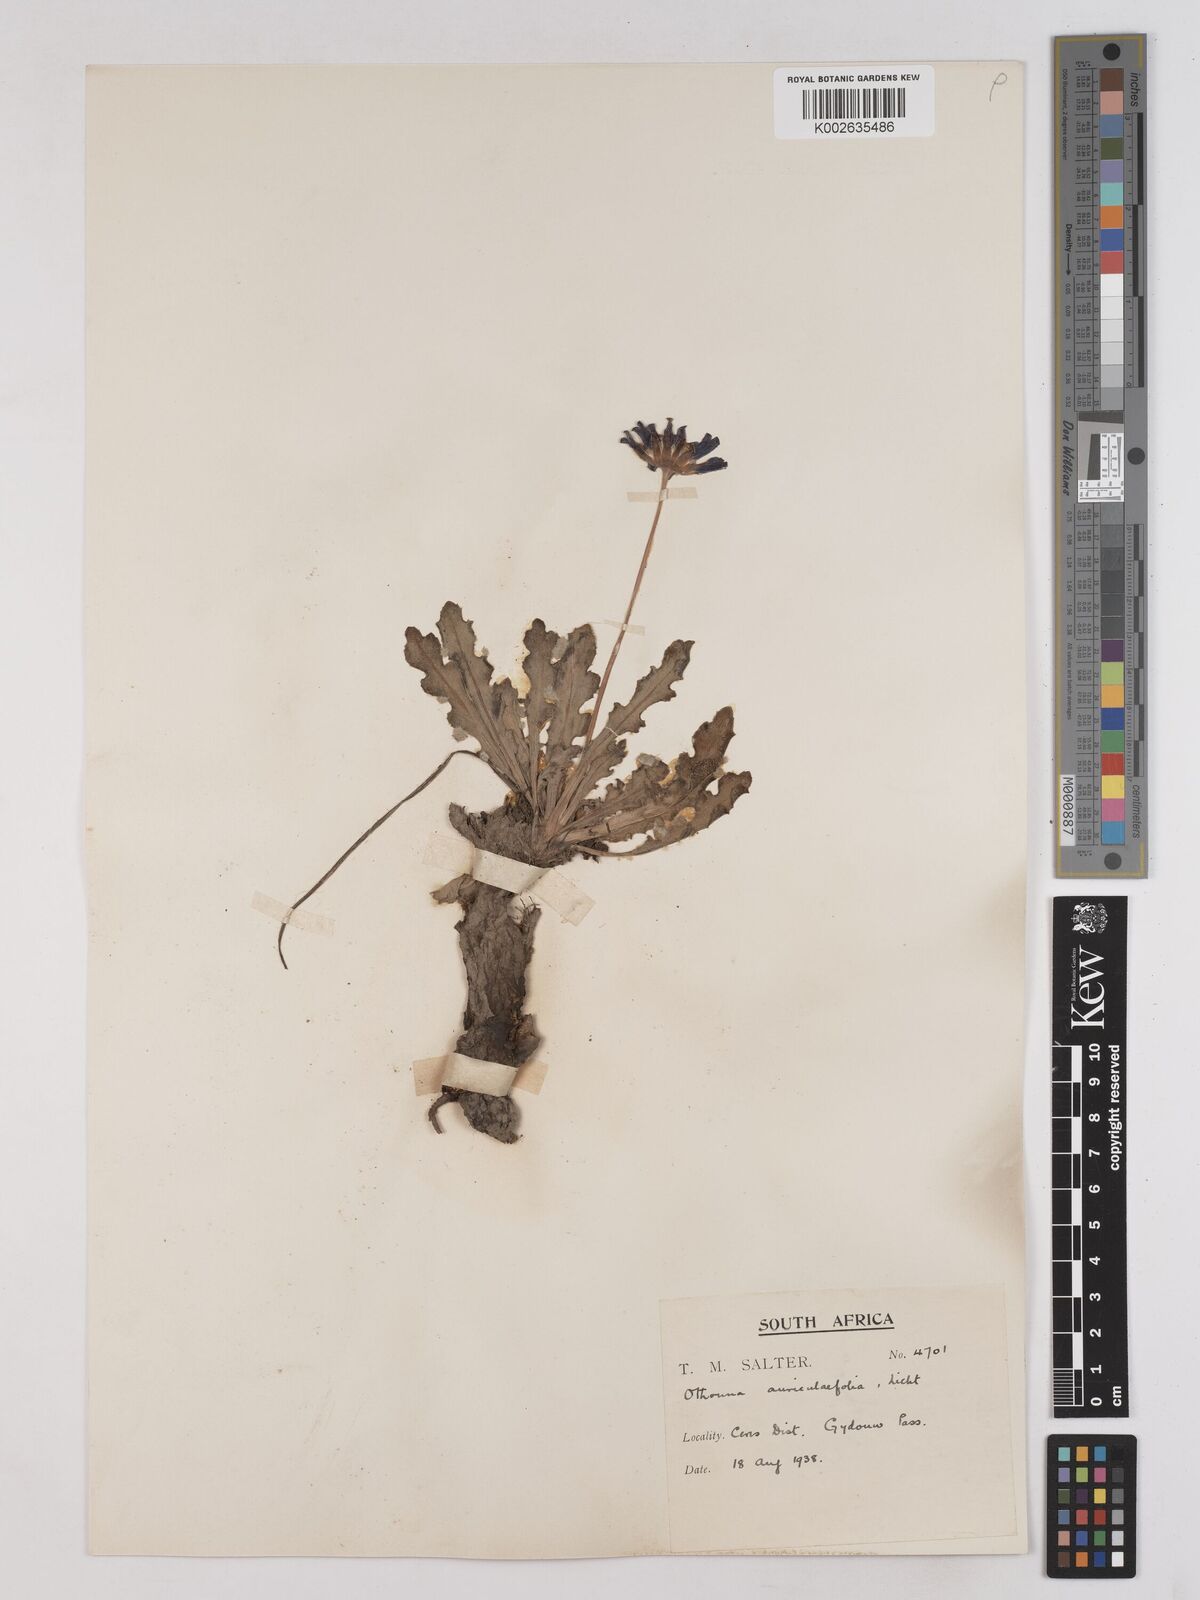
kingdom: Plantae
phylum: Tracheophyta
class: Magnoliopsida
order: Asterales
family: Asteraceae
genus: Othonna
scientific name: Othonna auriculifolia
